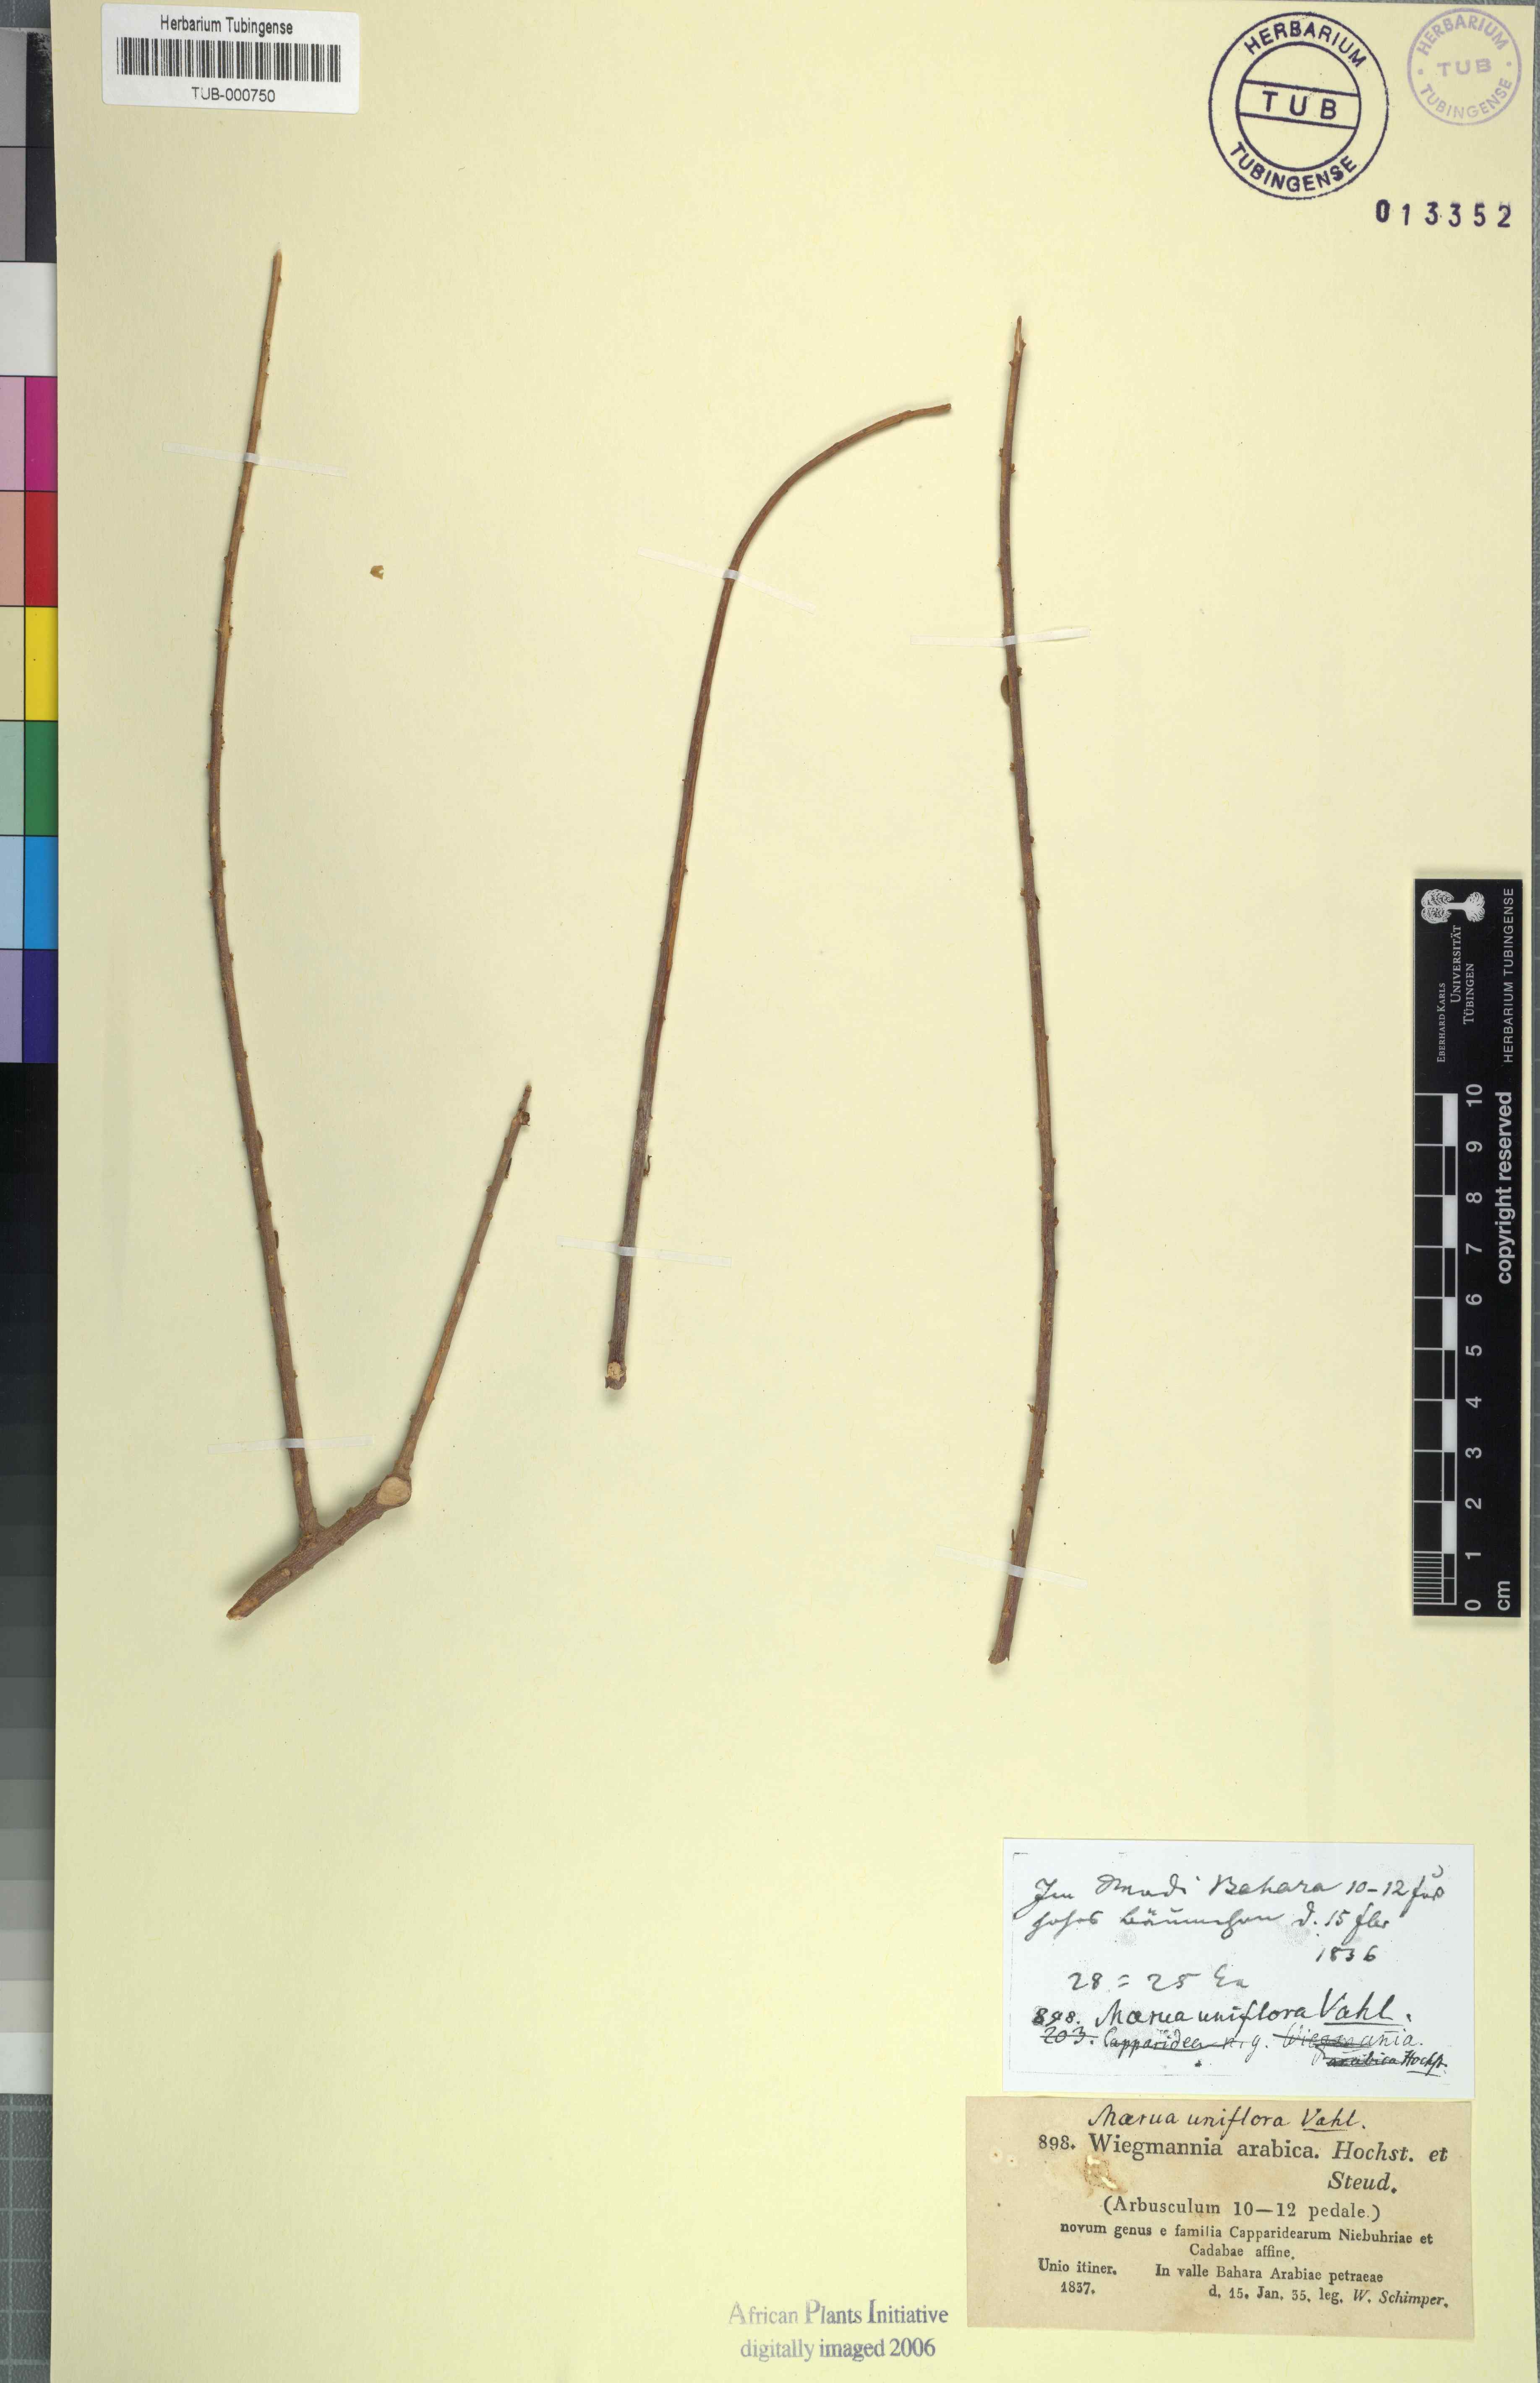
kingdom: Plantae
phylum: Tracheophyta
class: Magnoliopsida
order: Brassicales
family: Capparaceae
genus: Maerua
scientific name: Maerua crassifolia
